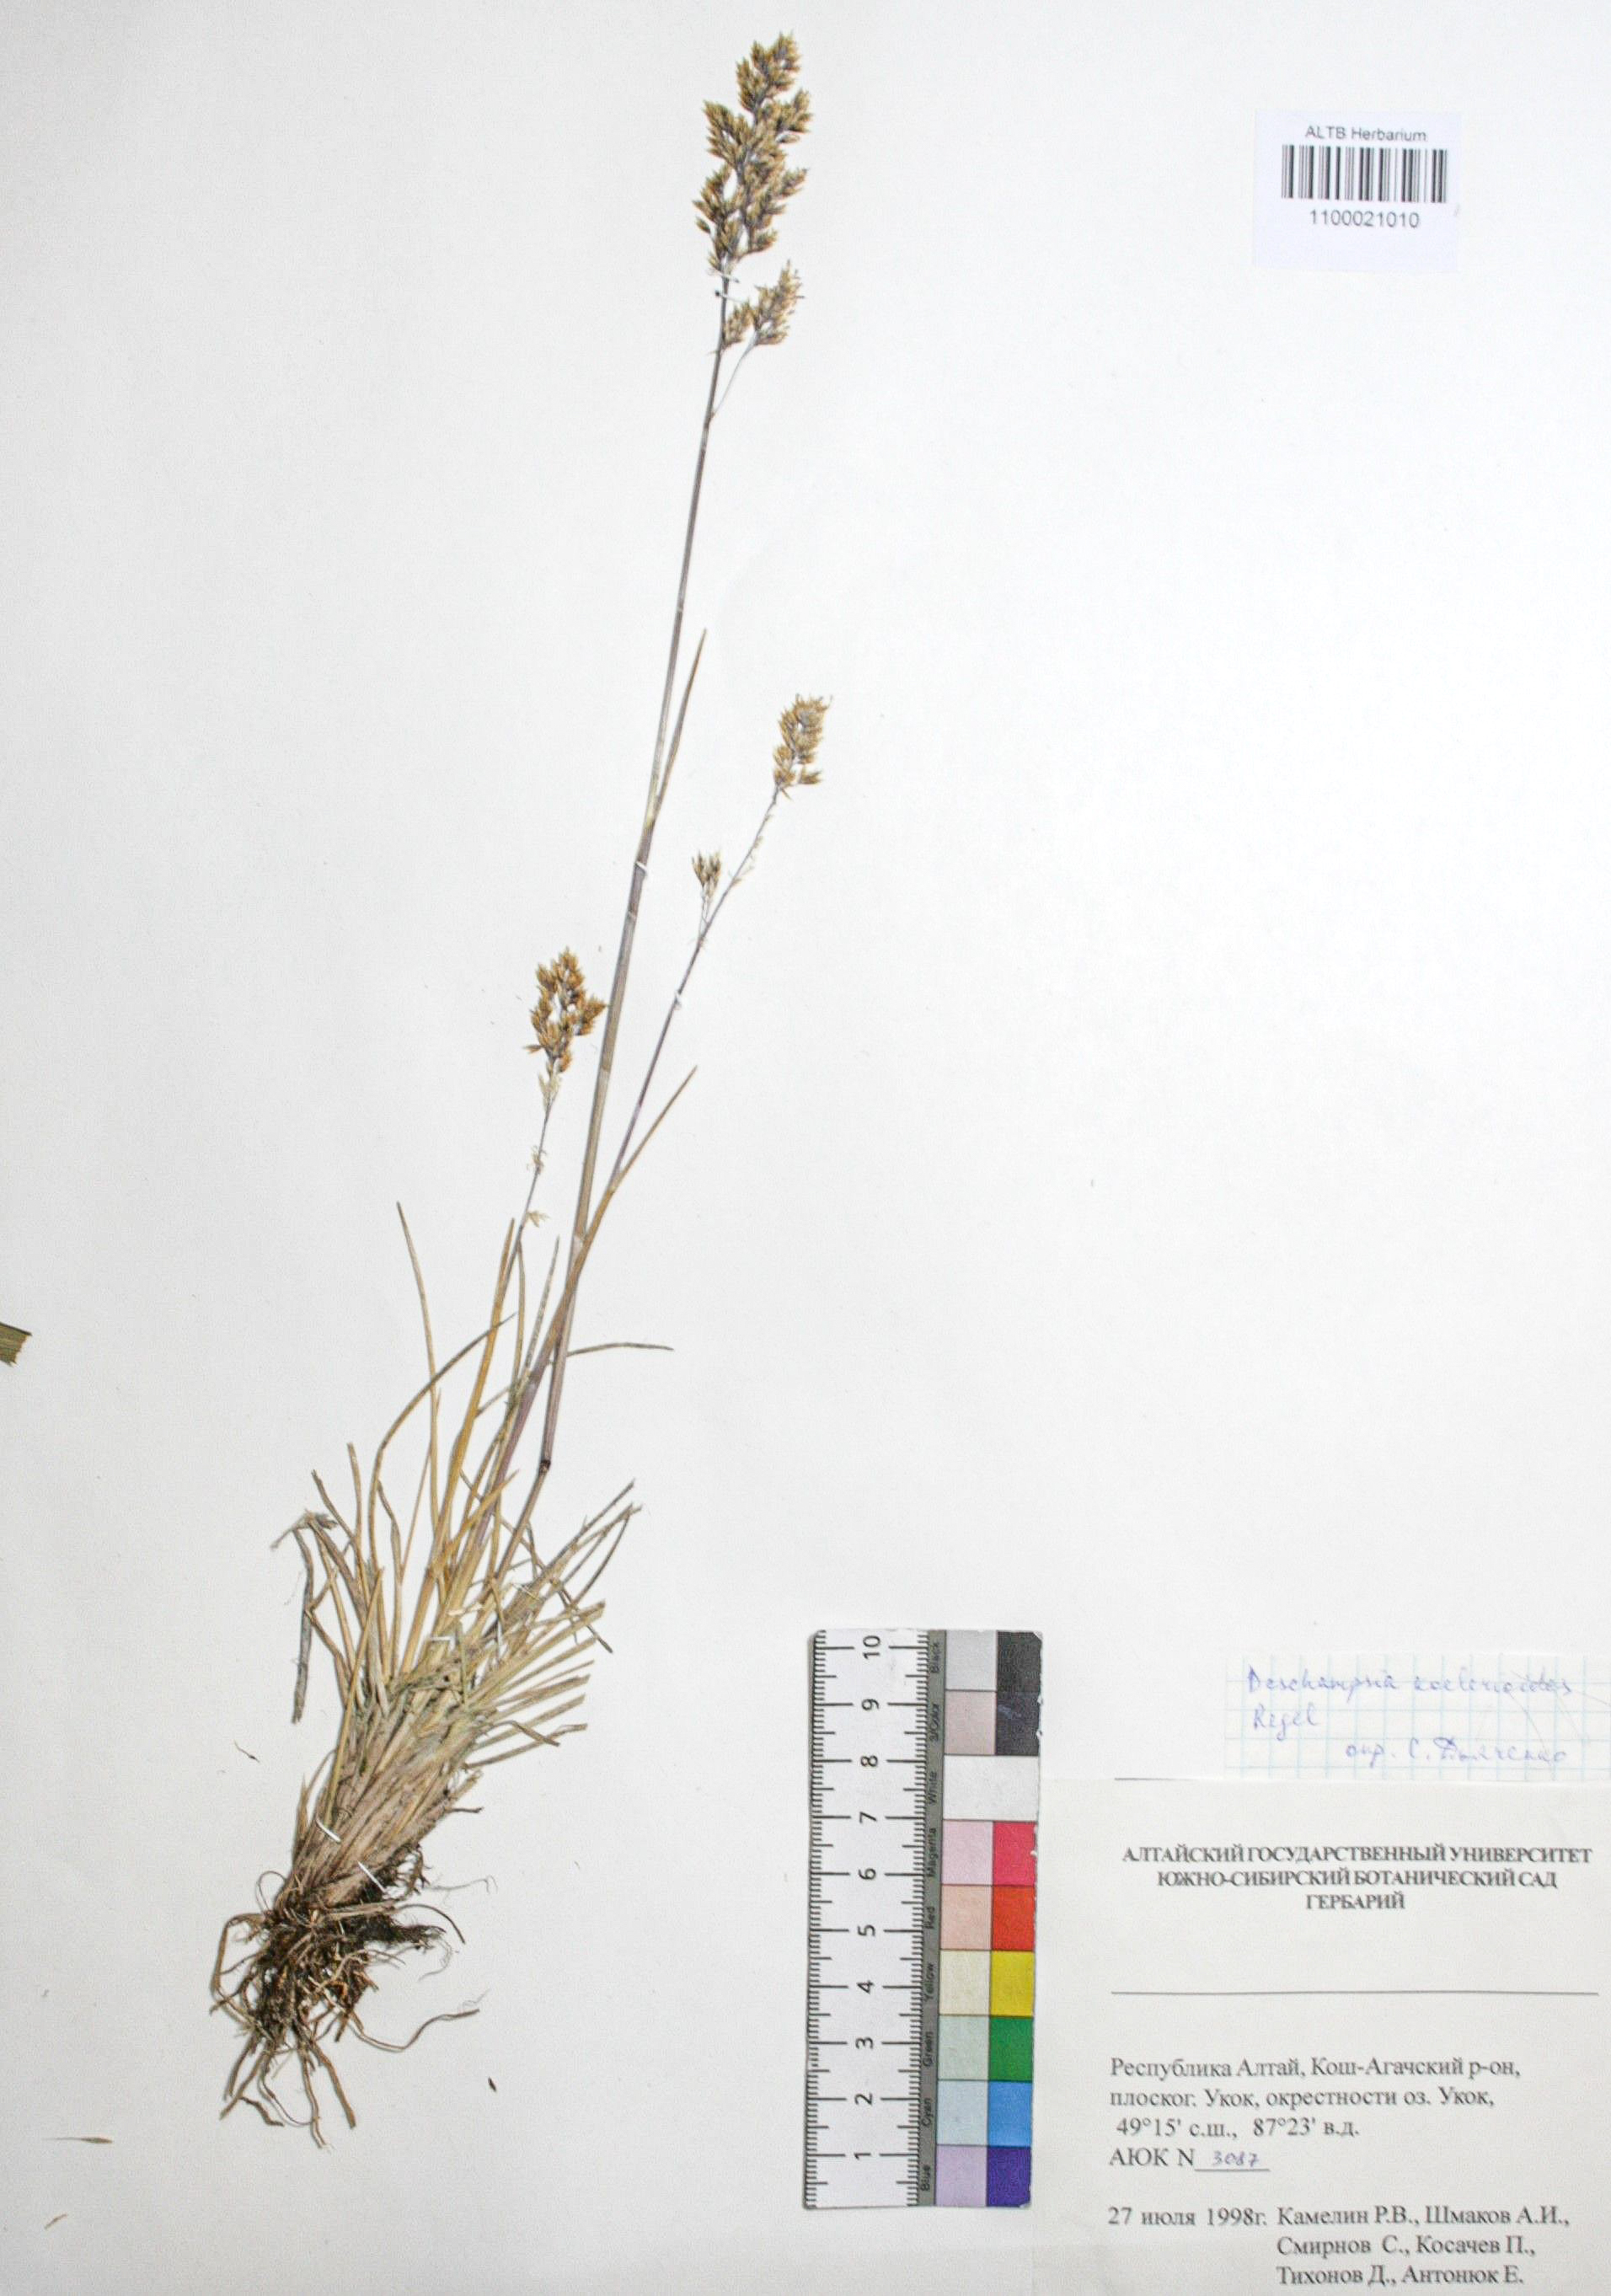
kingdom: Plantae
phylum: Tracheophyta
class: Liliopsida
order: Poales
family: Poaceae
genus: Deschampsia
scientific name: Deschampsia koelerioides
